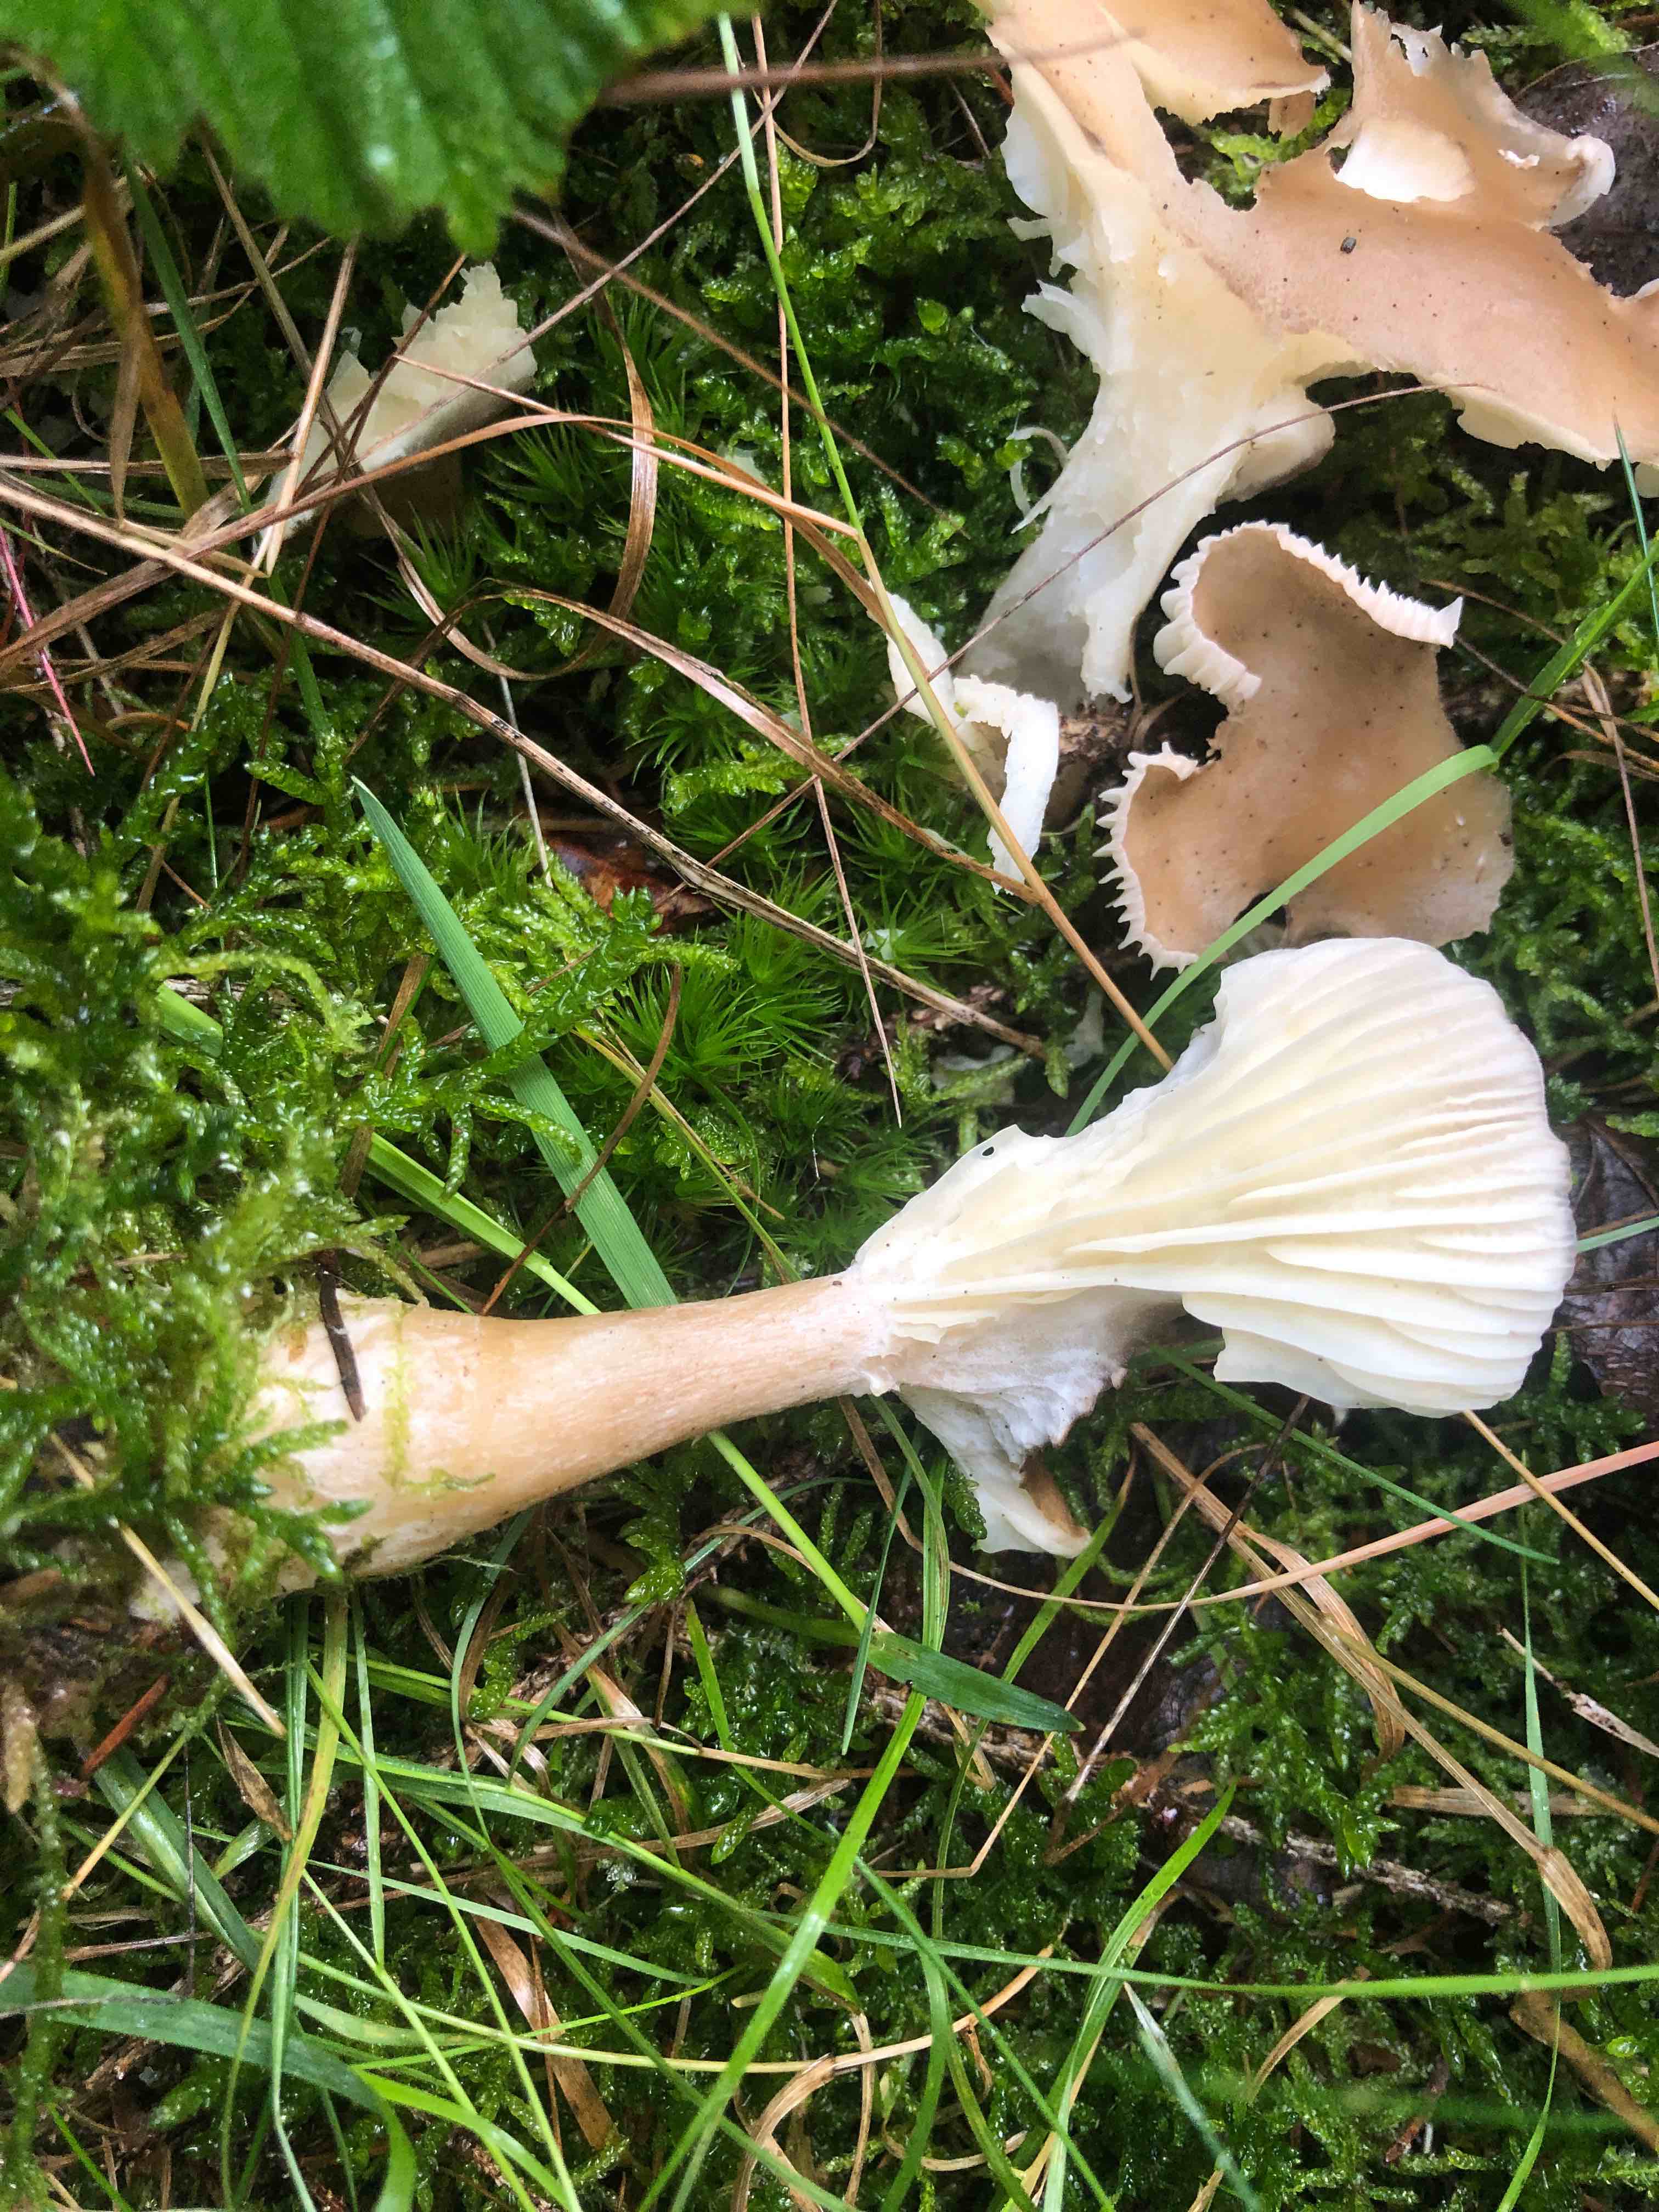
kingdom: Fungi
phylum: Basidiomycota
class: Agaricomycetes
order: Agaricales
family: Hygrophoraceae
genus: Ampulloclitocybe
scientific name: Ampulloclitocybe clavipes
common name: køllefod
